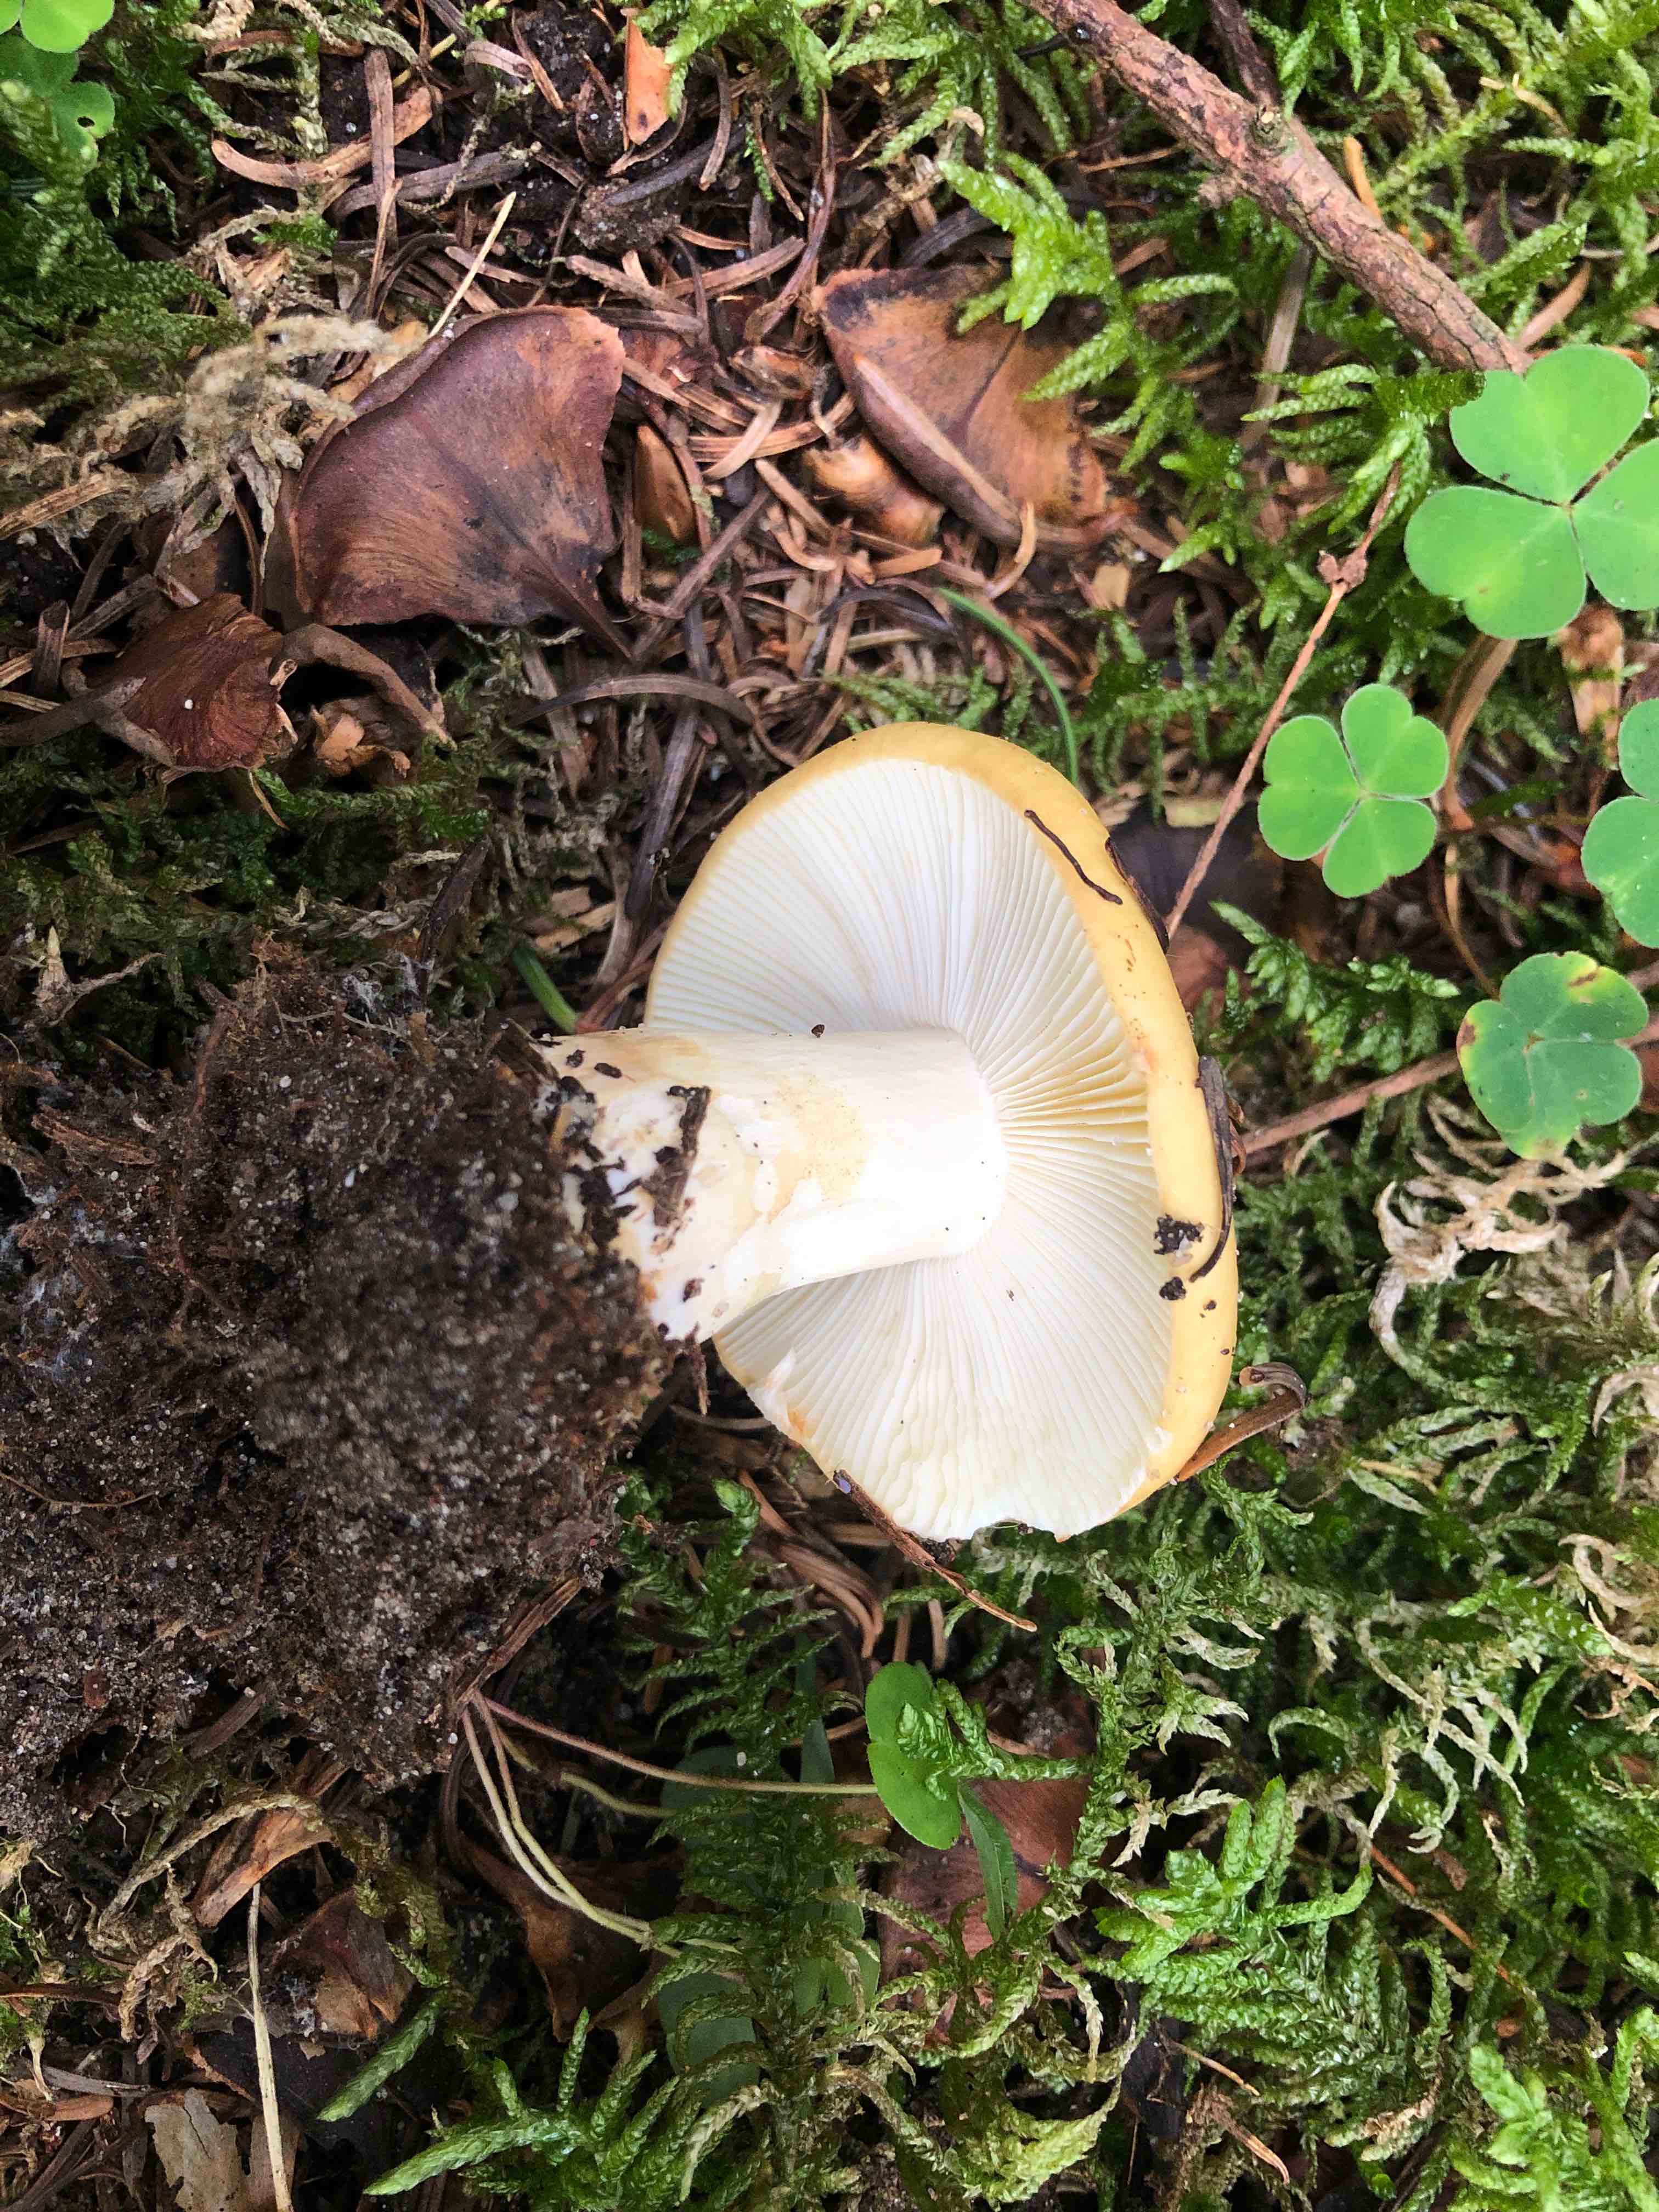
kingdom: Fungi
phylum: Basidiomycota
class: Agaricomycetes
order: Russulales
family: Russulaceae
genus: Russula
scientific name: Russula ochroleuca
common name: okkergul skørhat
